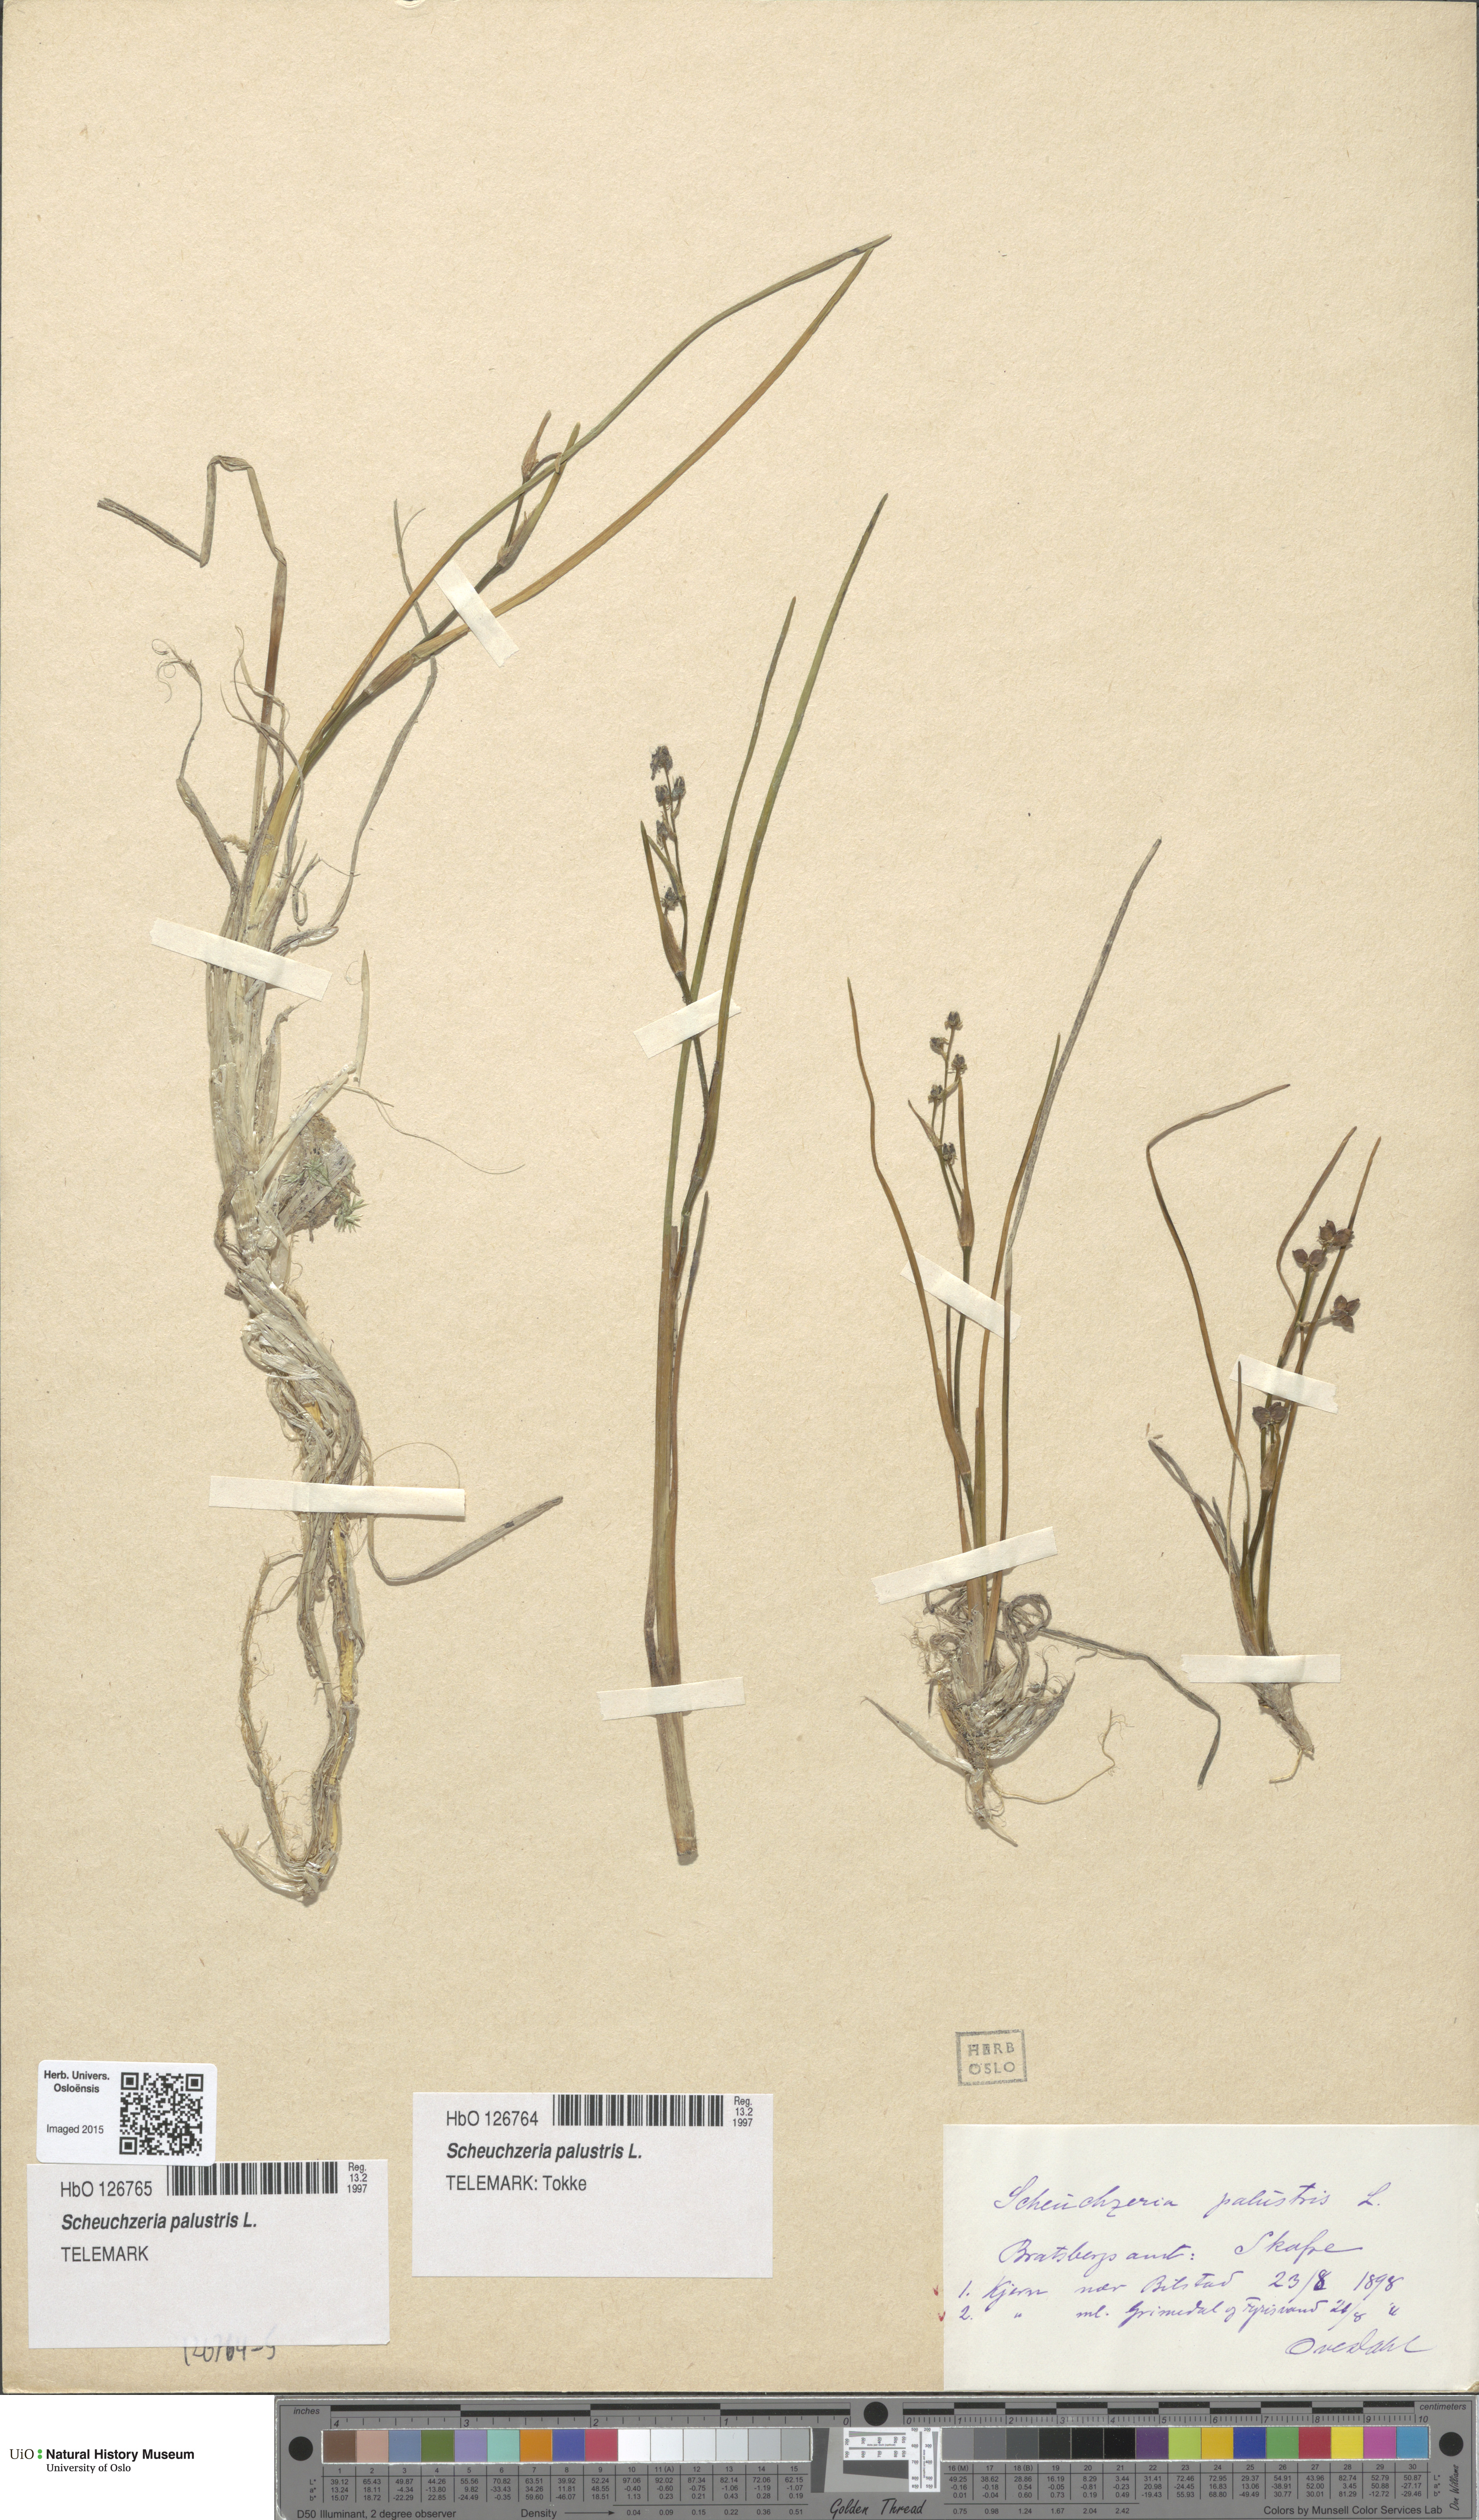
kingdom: Plantae
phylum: Tracheophyta
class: Liliopsida
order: Alismatales
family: Scheuchzeriaceae
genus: Scheuchzeria
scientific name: Scheuchzeria palustris
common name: Rannoch-rush
